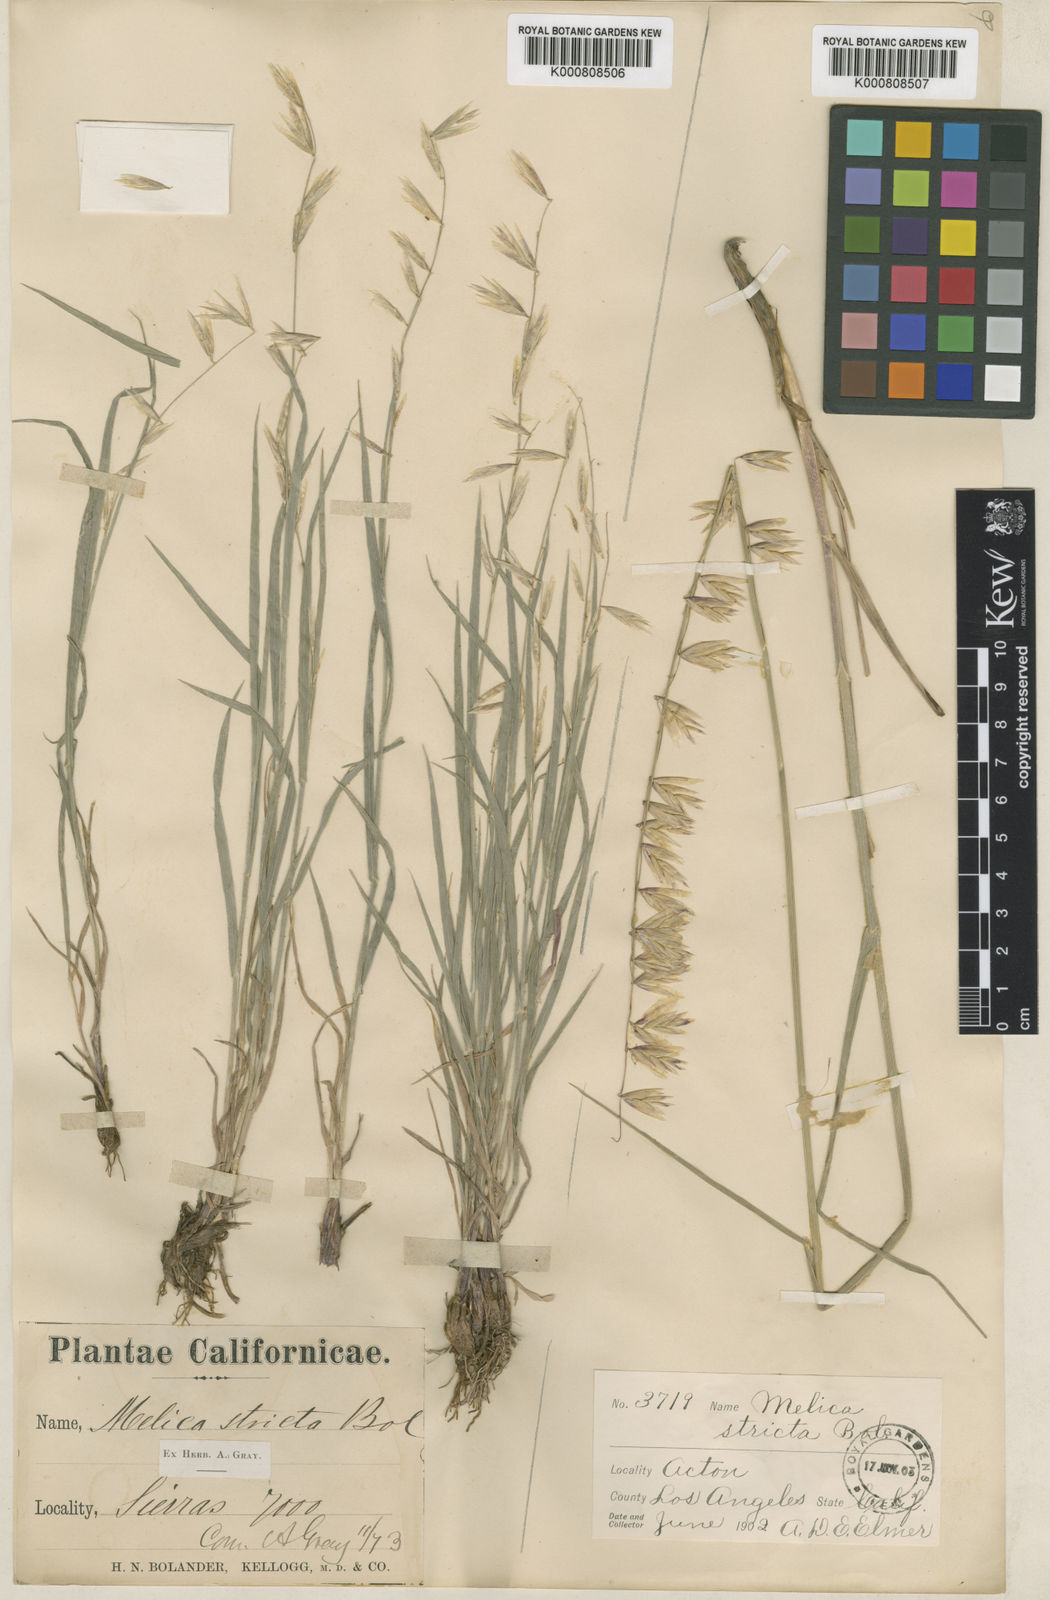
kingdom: Plantae
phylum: Tracheophyta
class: Liliopsida
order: Poales
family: Poaceae
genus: Melica
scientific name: Melica stricta
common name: Rock melic
